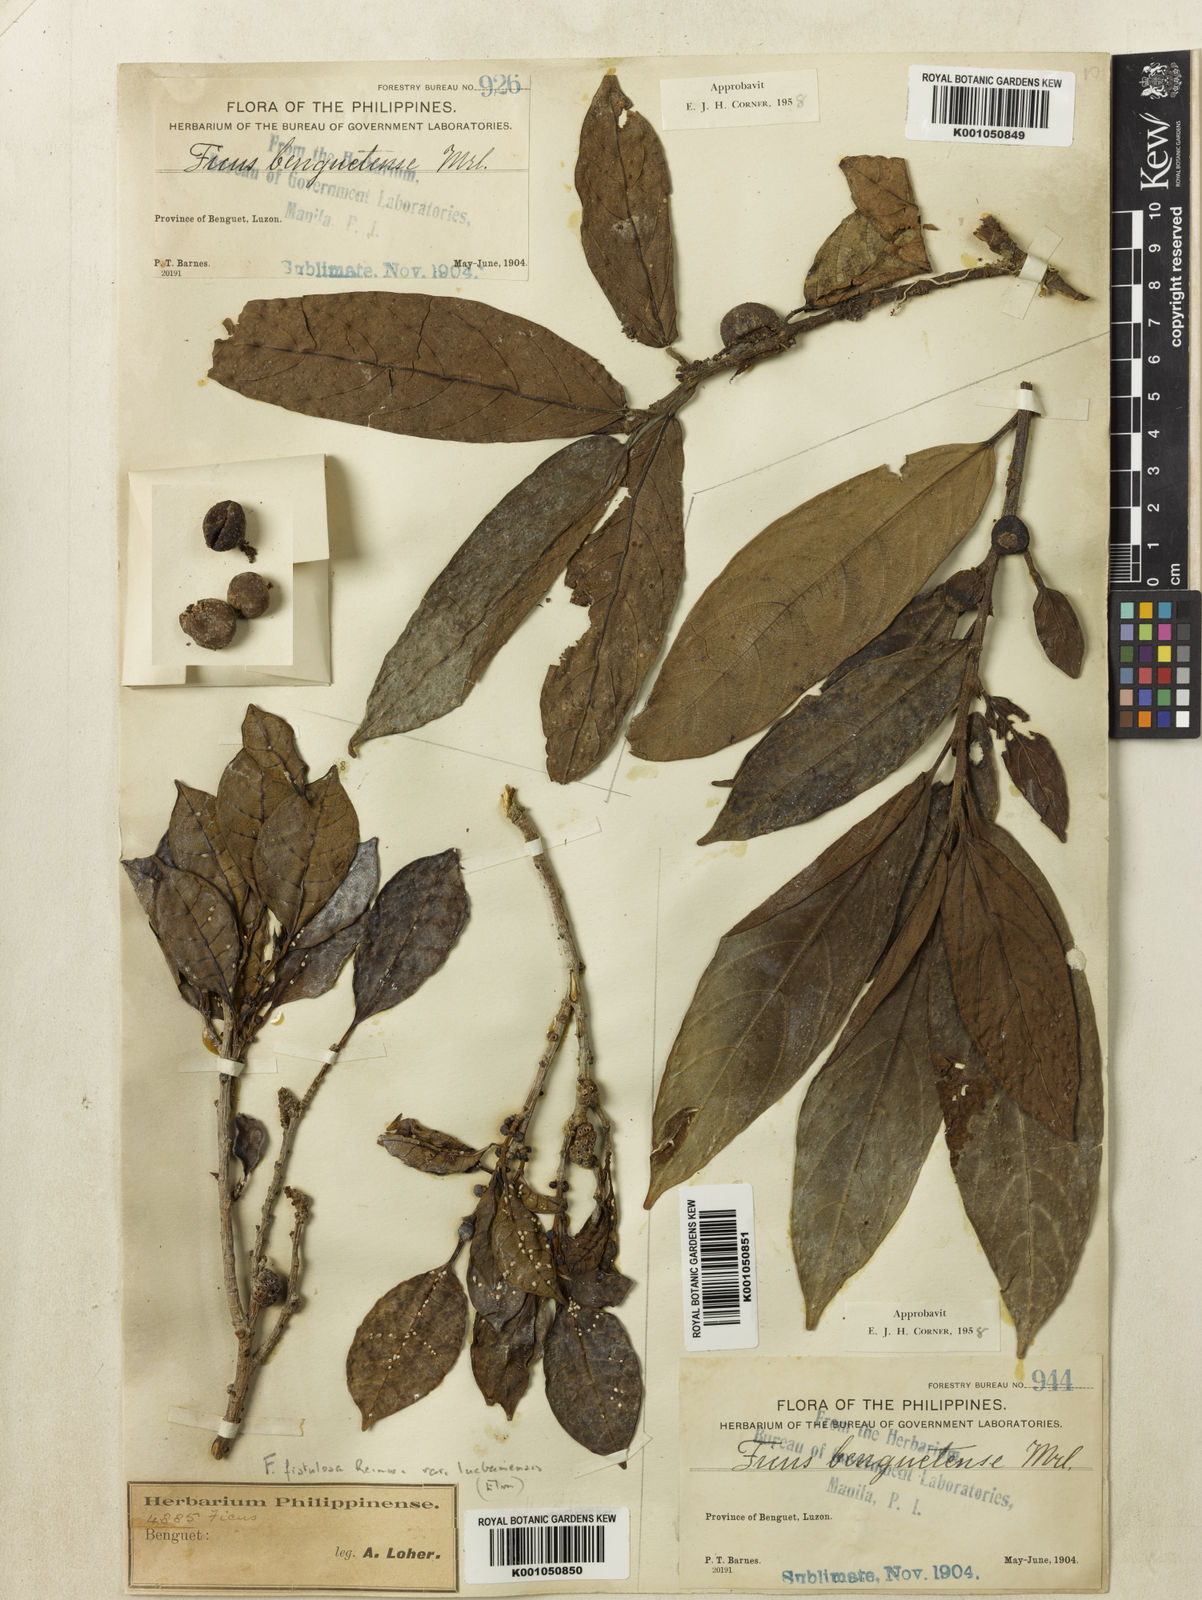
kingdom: Plantae
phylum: Tracheophyta
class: Magnoliopsida
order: Rosales
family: Moraceae
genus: Ficus
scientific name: Ficus benguetensis
